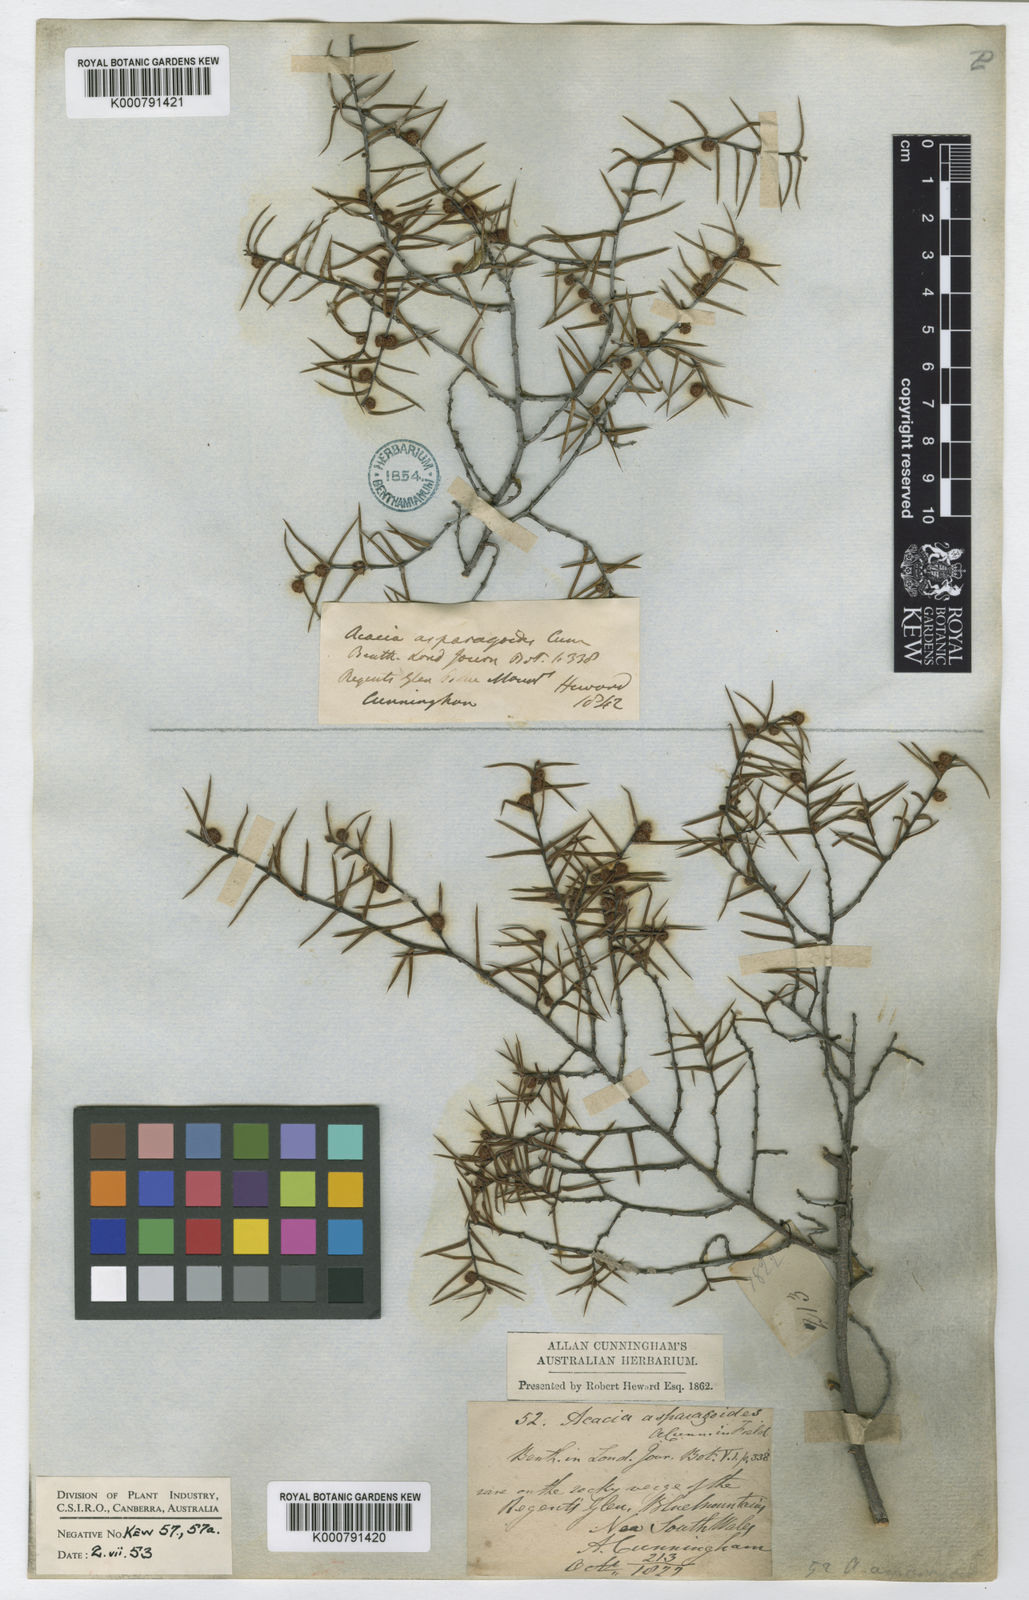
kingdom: Plantae
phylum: Tracheophyta
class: Magnoliopsida
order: Fabales
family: Fabaceae
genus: Acacia
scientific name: Acacia asparagoides
